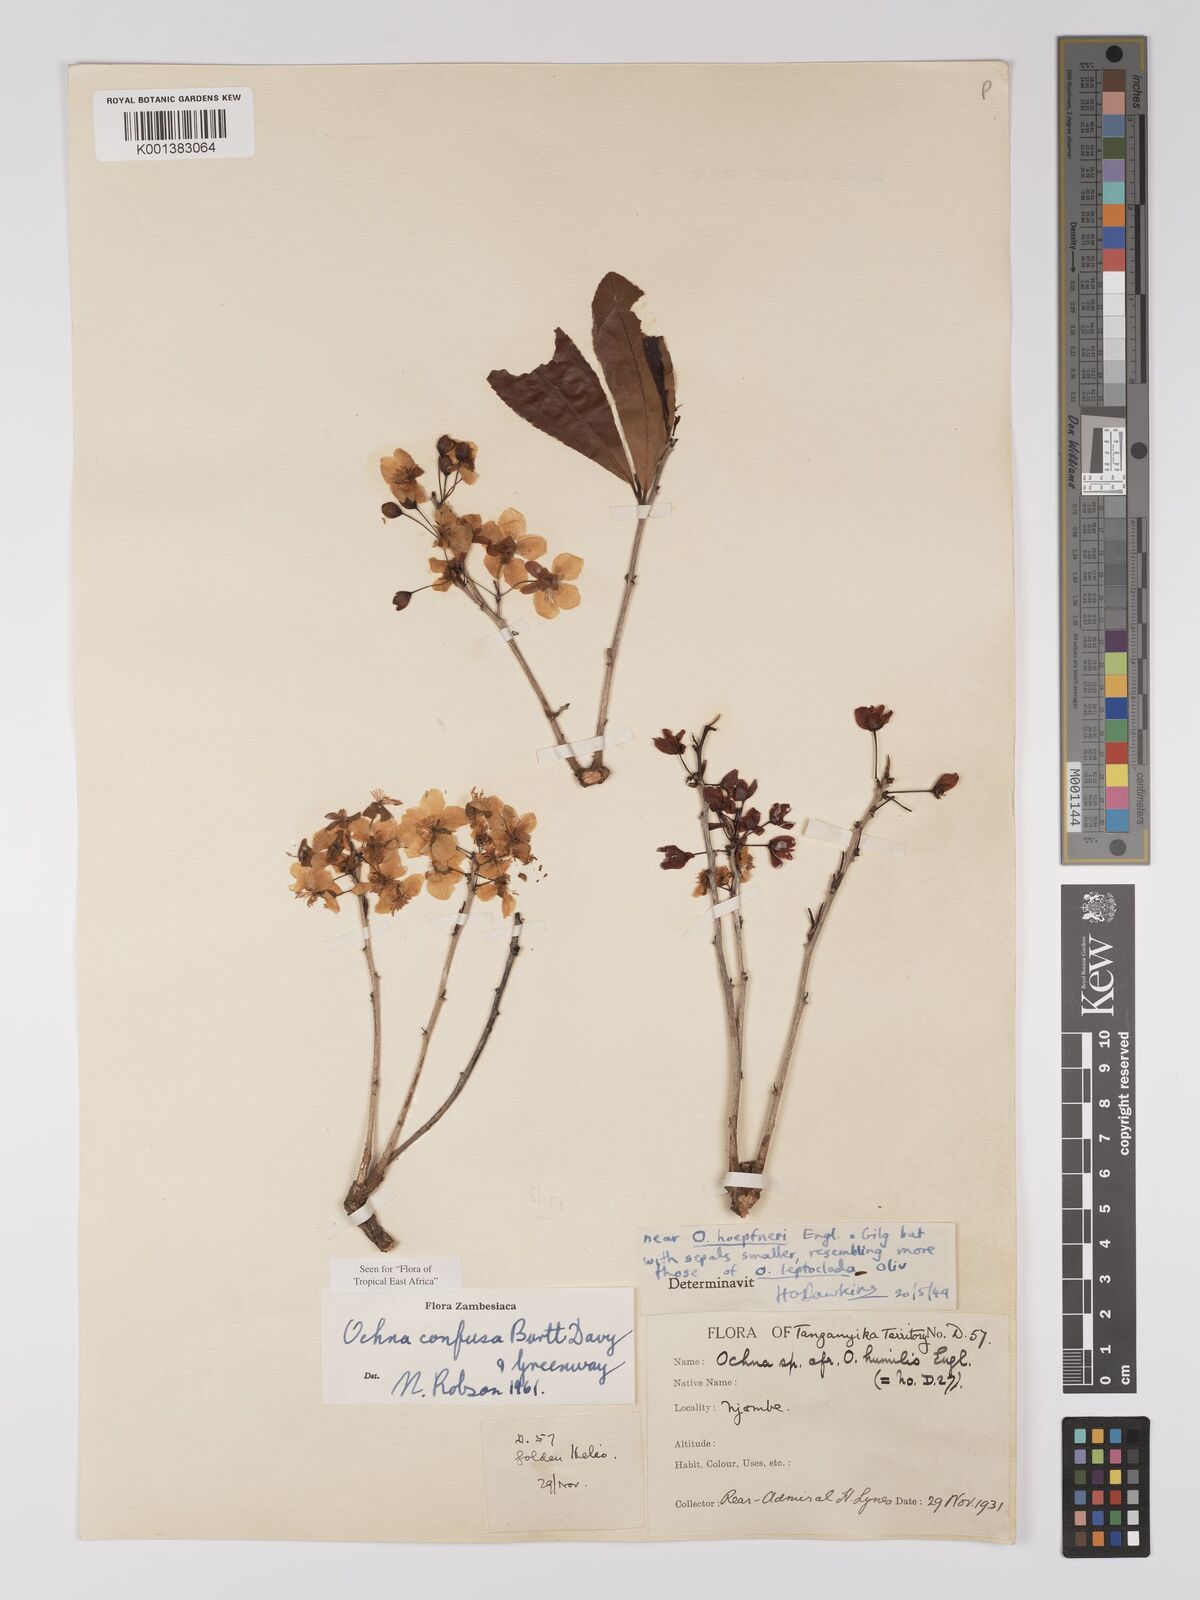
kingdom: Plantae
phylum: Tracheophyta
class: Magnoliopsida
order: Malpighiales
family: Ochnaceae
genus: Ochna
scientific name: Ochna confusa
